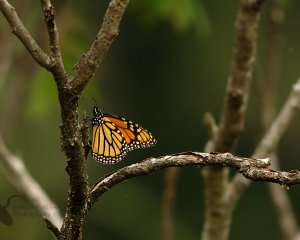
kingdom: Animalia
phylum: Arthropoda
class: Insecta
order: Lepidoptera
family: Nymphalidae
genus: Danaus
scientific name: Danaus plexippus
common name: Monarch
